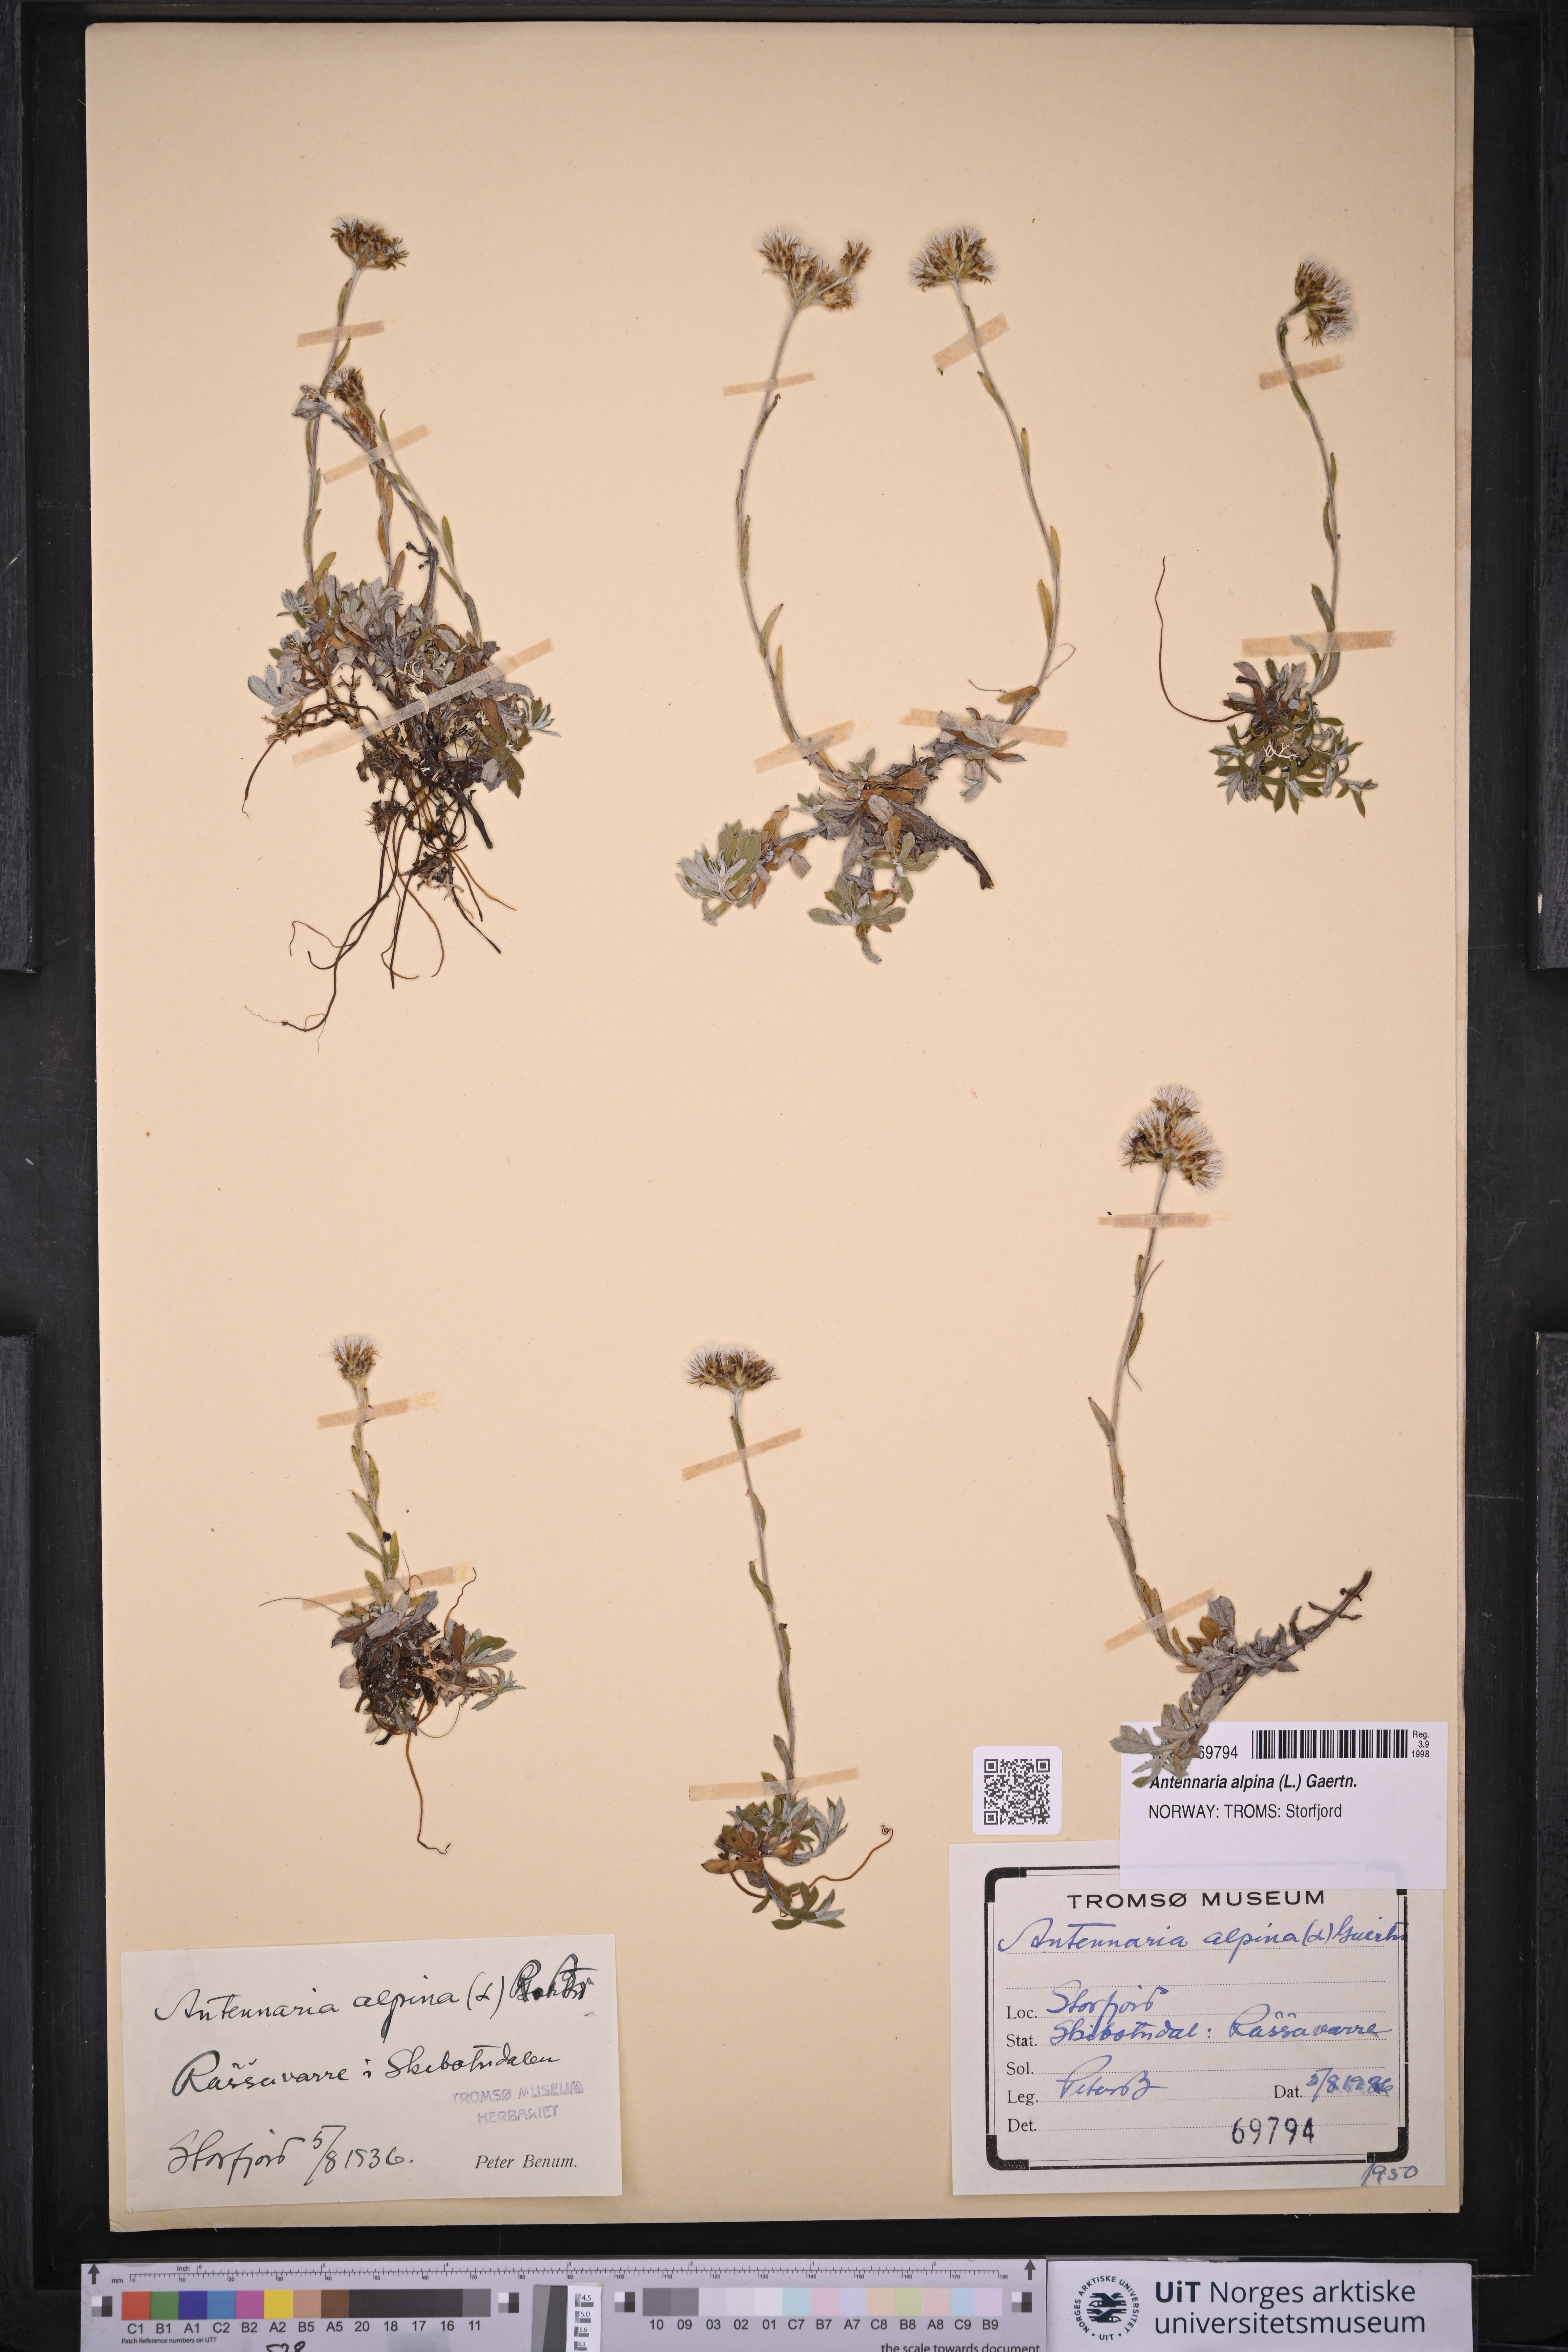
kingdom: Plantae
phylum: Tracheophyta
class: Magnoliopsida
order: Asterales
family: Asteraceae
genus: Antennaria
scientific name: Antennaria alpina
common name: Alpine pussytoes
